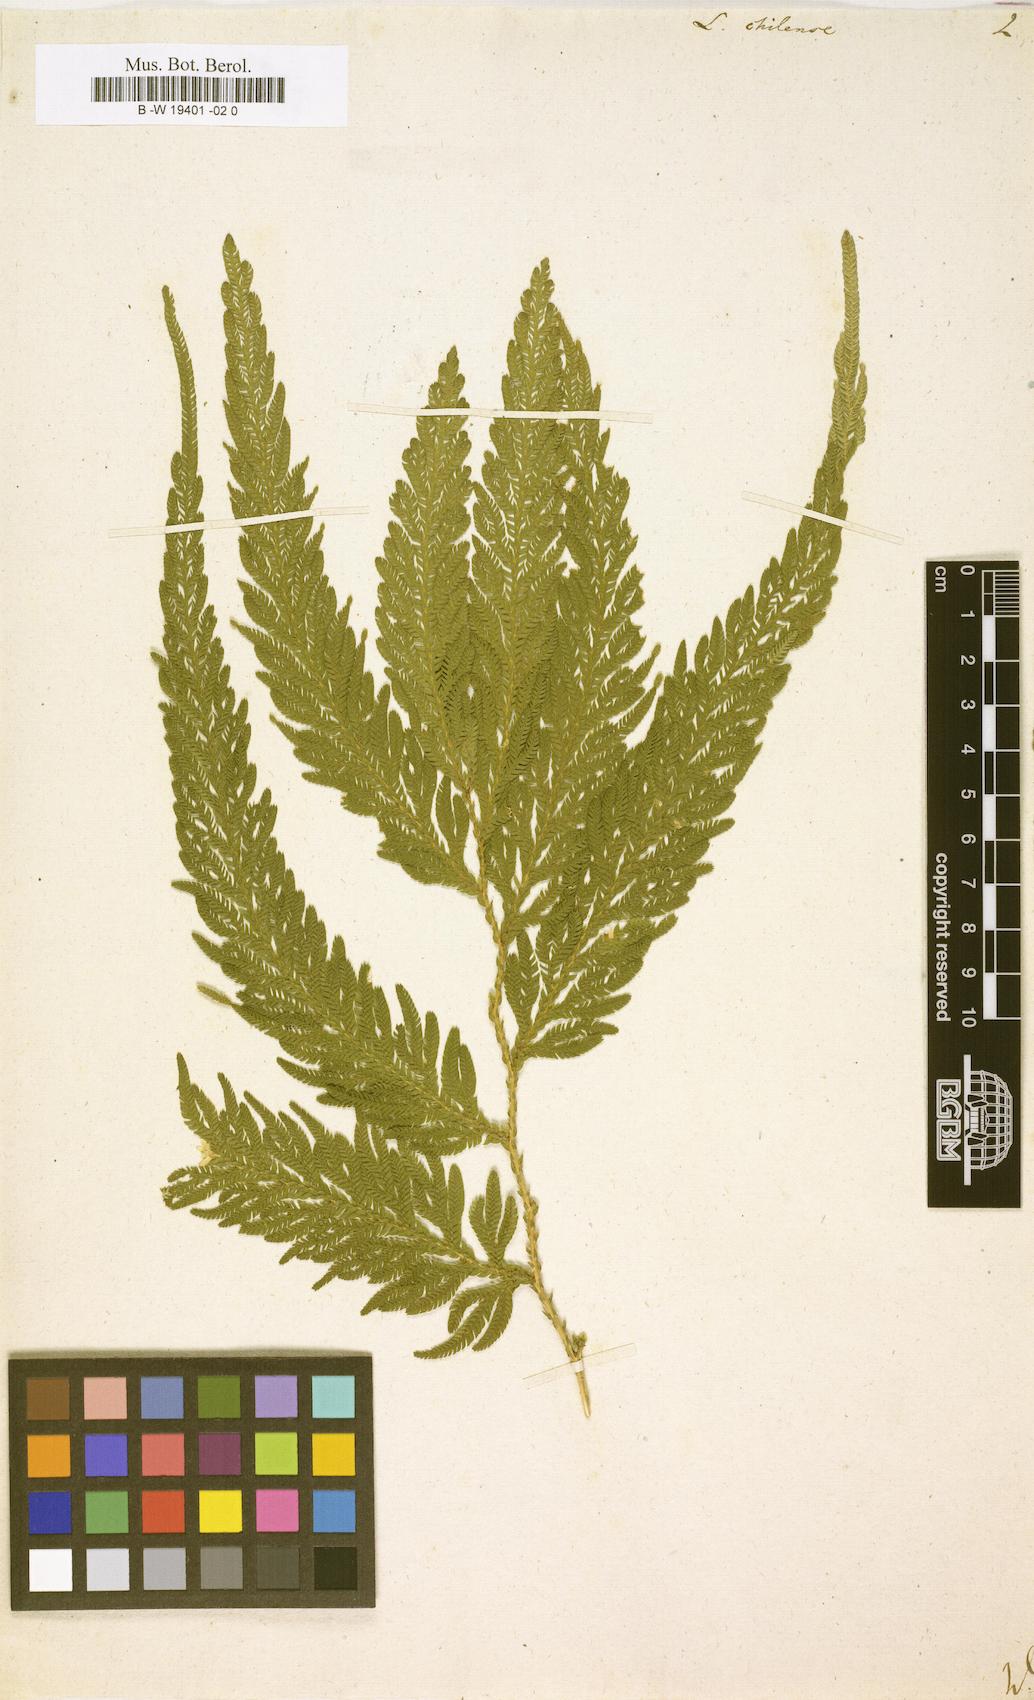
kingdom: Plantae
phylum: Tracheophyta
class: Lycopodiopsida
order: Lycopodiales
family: Lycopodiaceae
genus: Huperzia
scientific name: Huperzia
